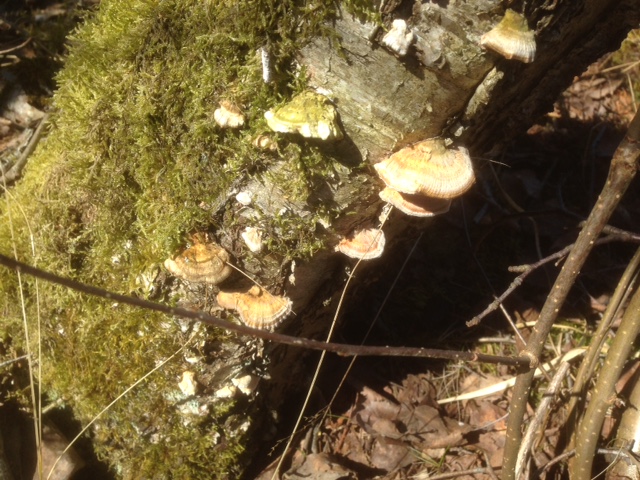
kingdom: Fungi
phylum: Basidiomycota
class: Agaricomycetes
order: Polyporales
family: Polyporaceae
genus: Trametes
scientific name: Trametes ochracea
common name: bæltet læderporesvamp
